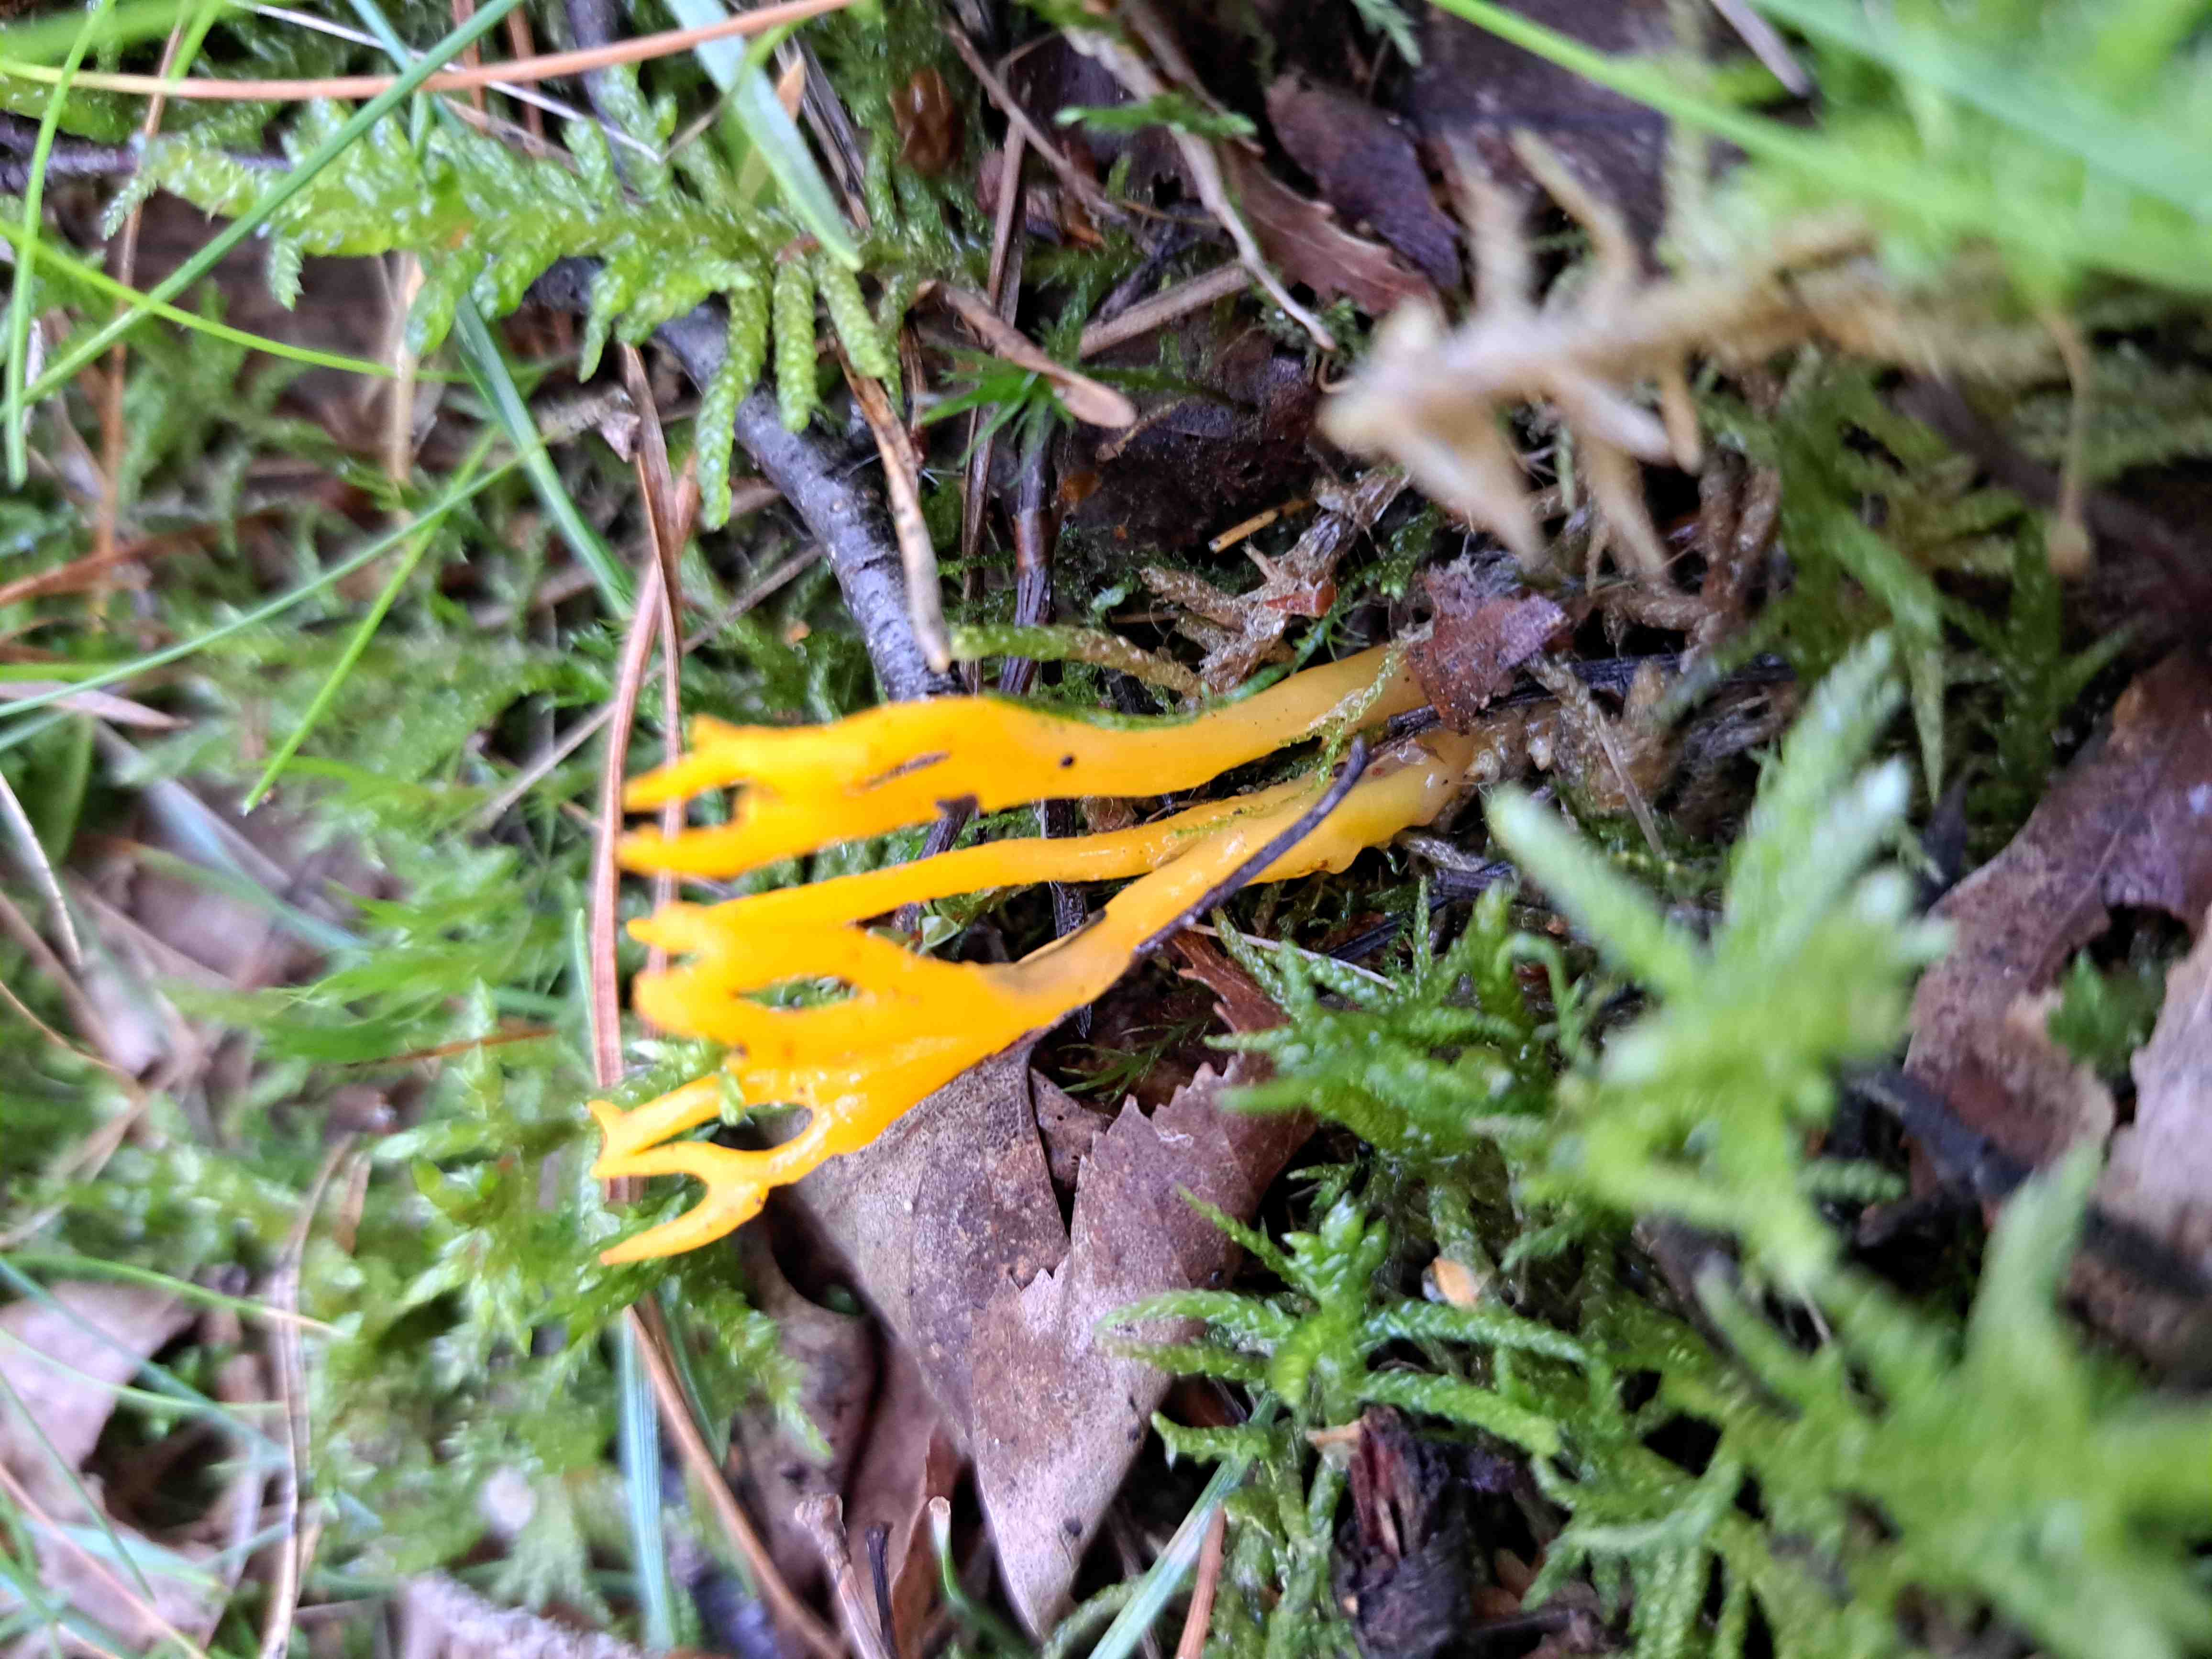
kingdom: Fungi
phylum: Basidiomycota
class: Dacrymycetes
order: Dacrymycetales
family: Dacrymycetaceae
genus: Calocera
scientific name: Calocera viscosa
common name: almindelig guldgaffel
